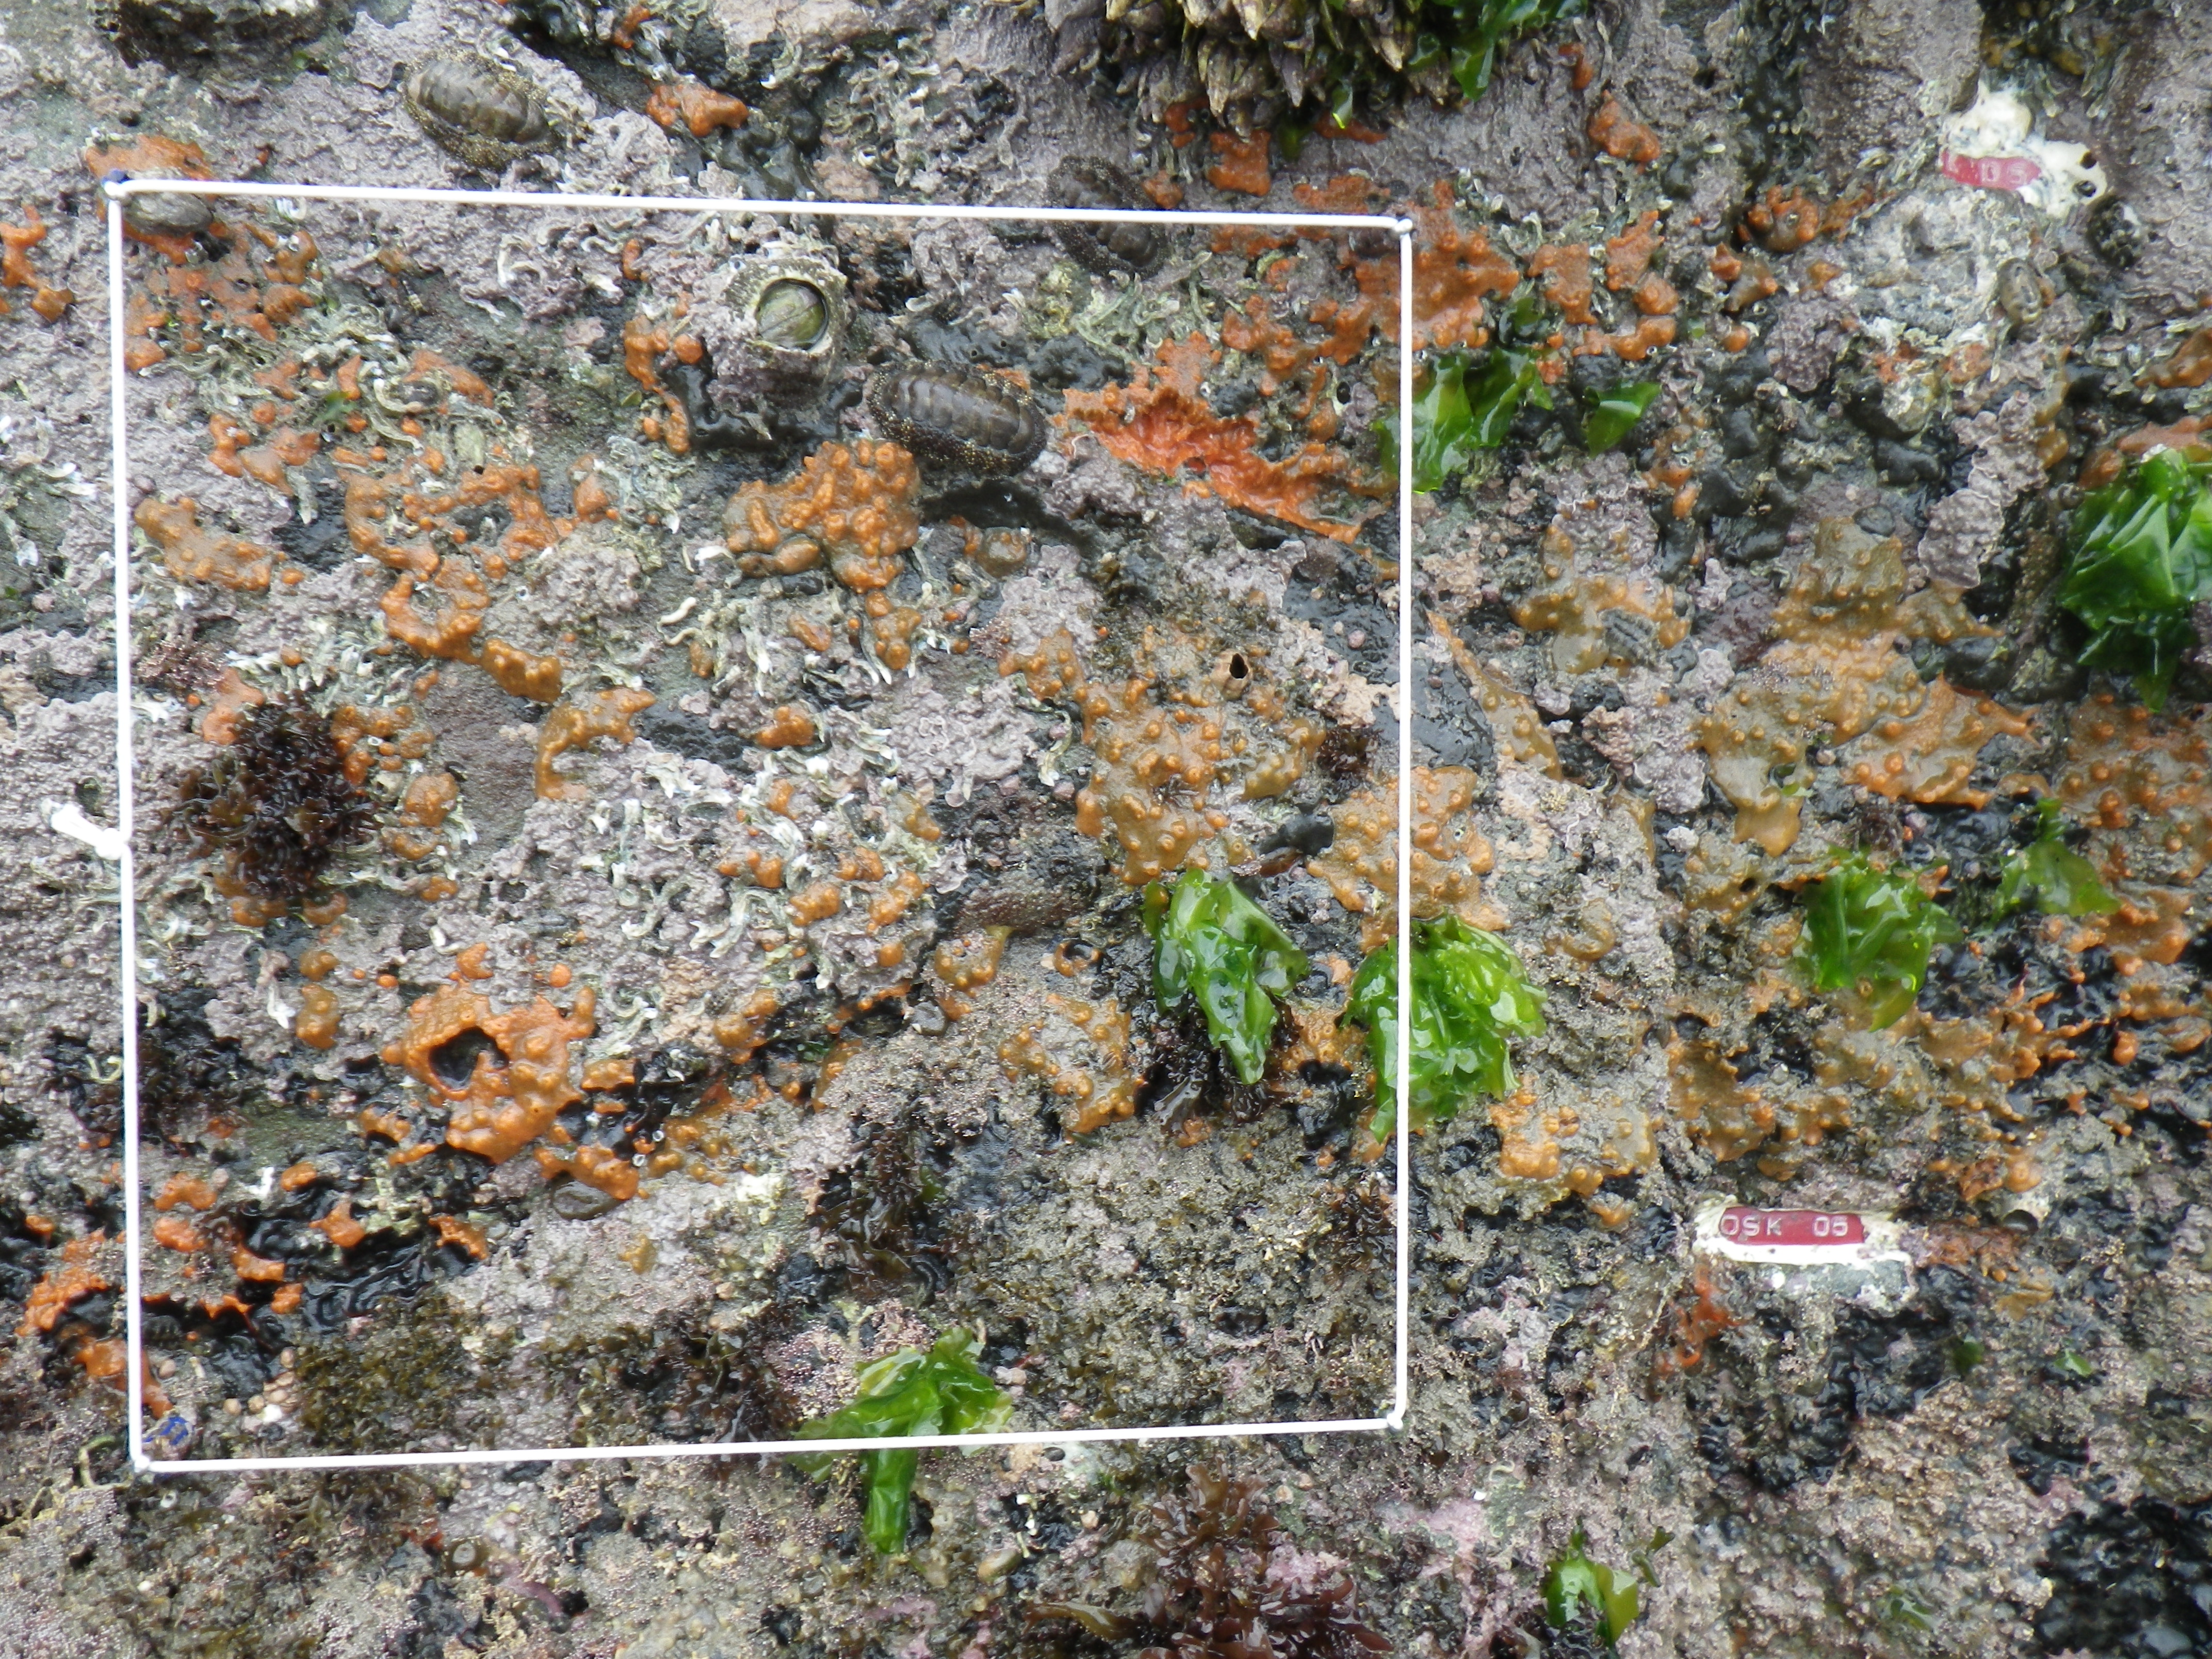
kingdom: Animalia
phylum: Arthropoda
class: Maxillopoda
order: Sessilia
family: Chthamalidae
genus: Chthamalus
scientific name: Chthamalus challengeri
